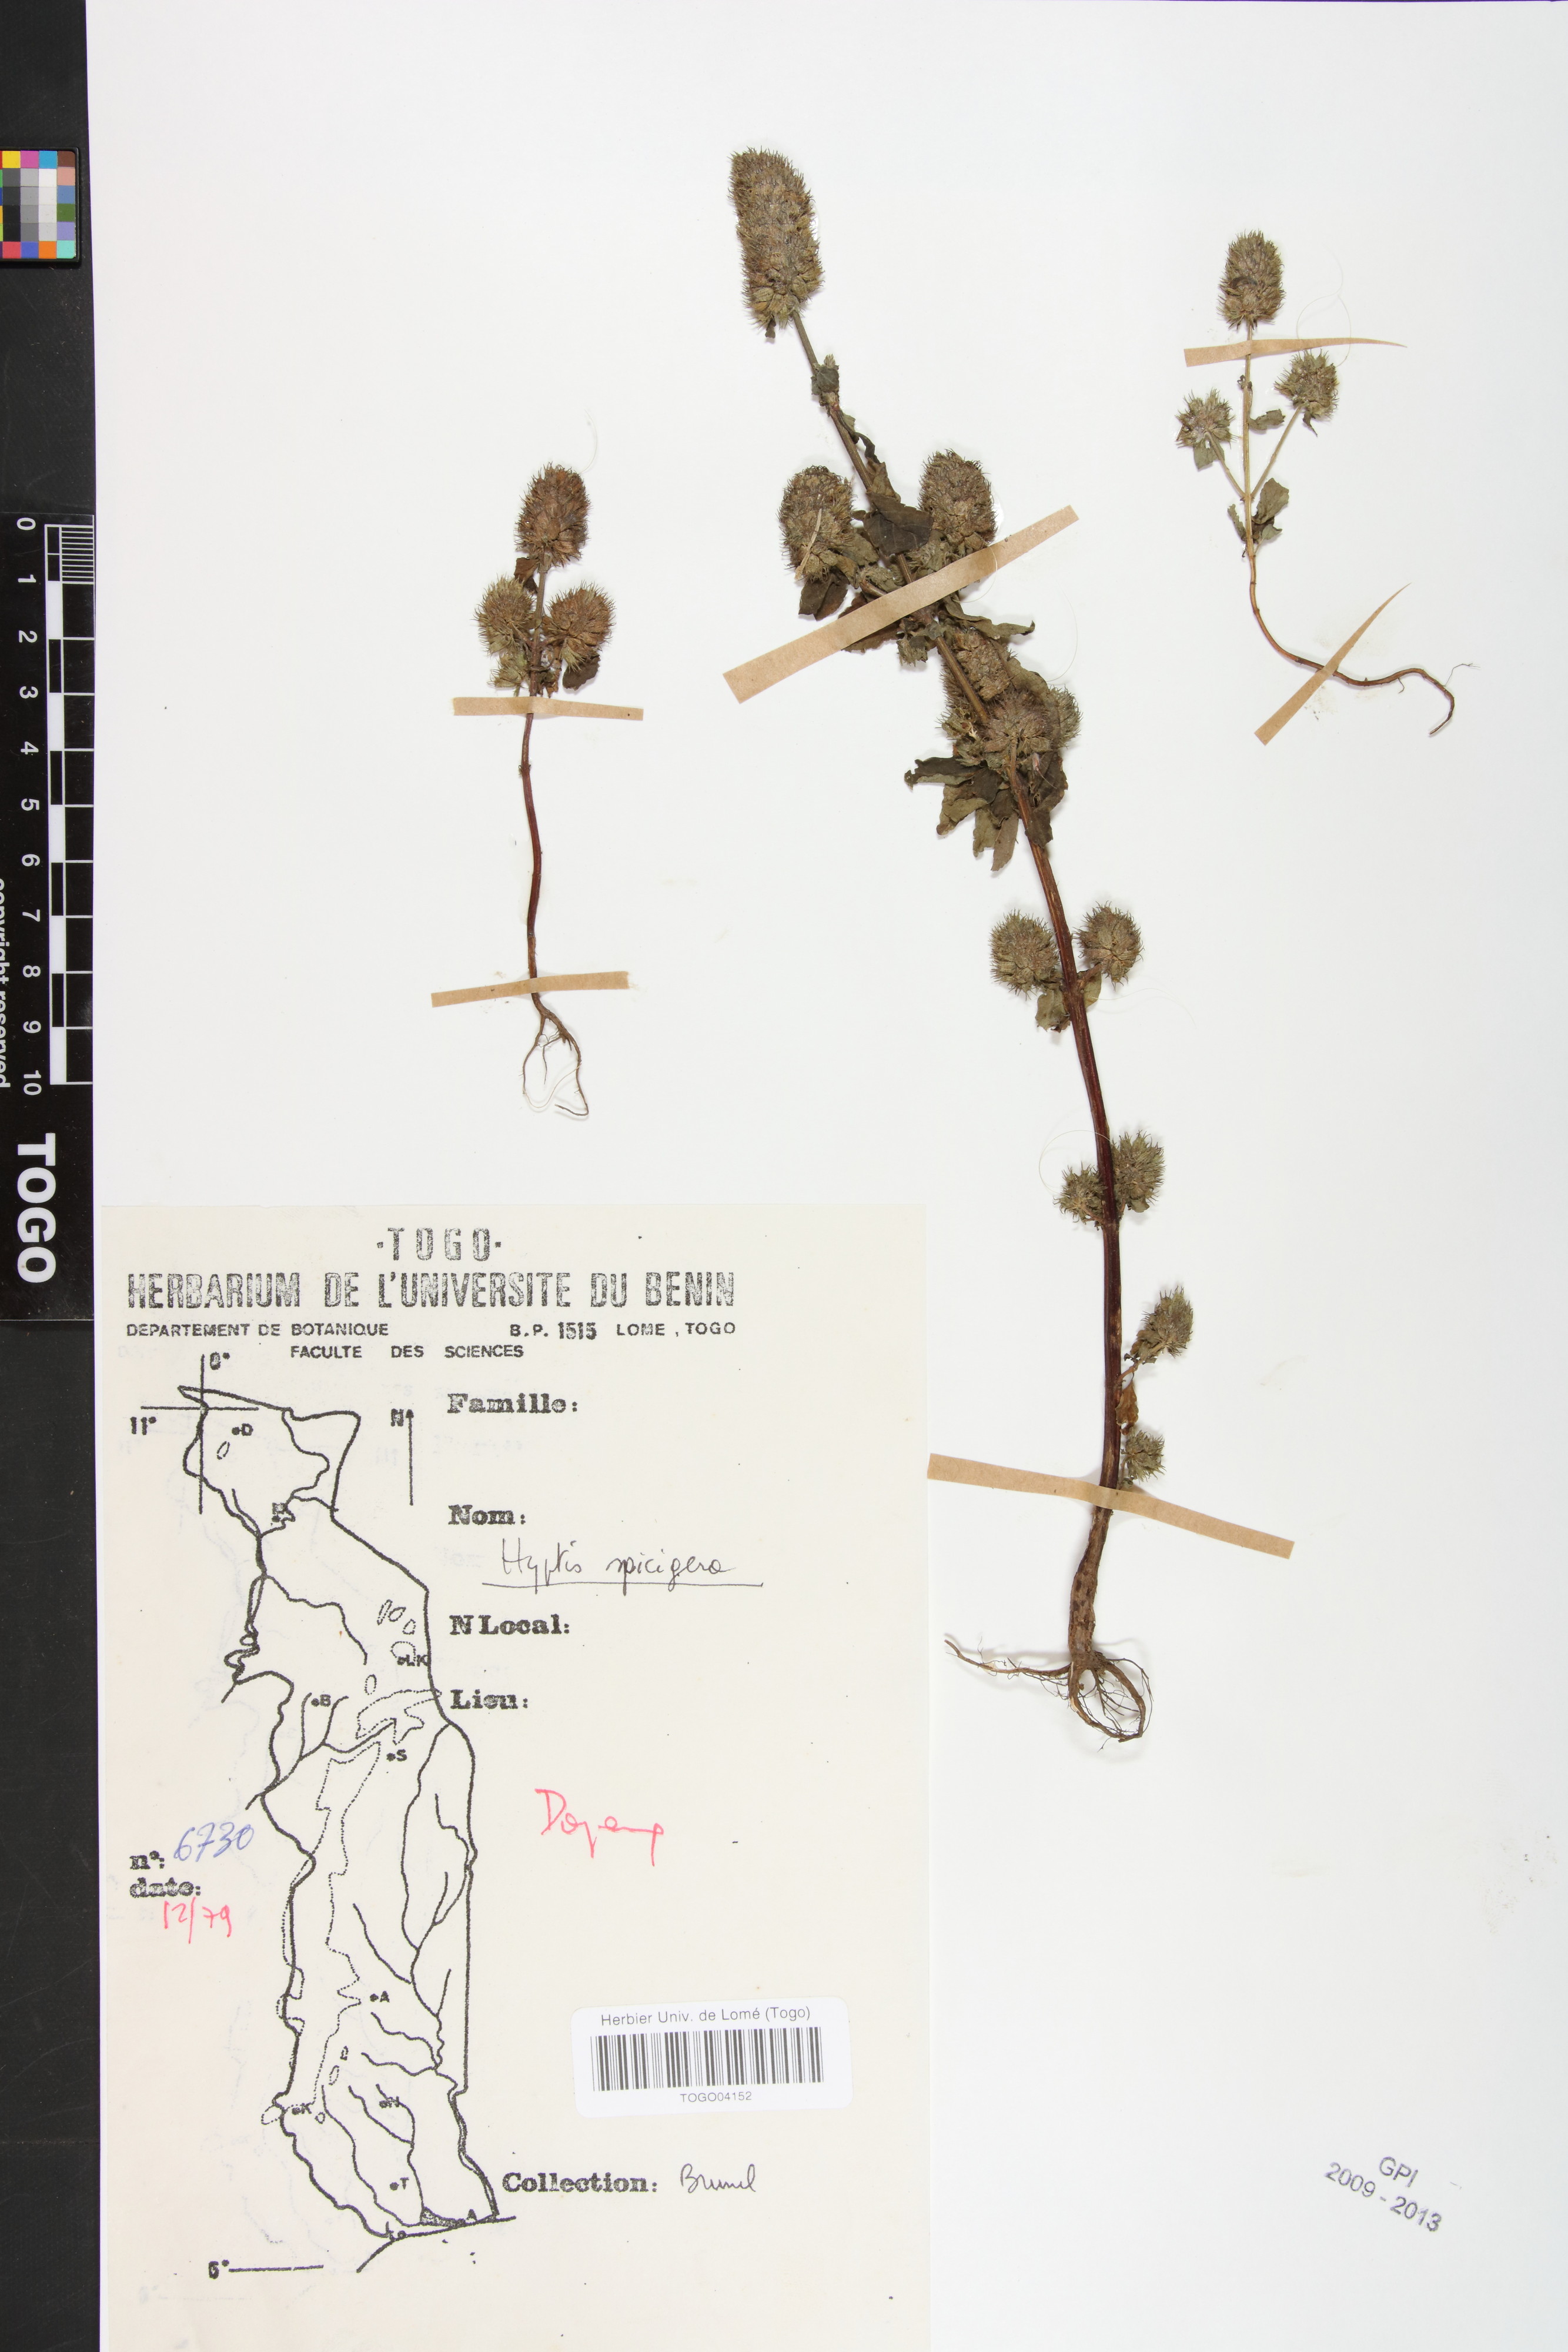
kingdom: Plantae
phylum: Tracheophyta
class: Magnoliopsida
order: Lamiales
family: Lamiaceae
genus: Cantinoa
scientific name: Cantinoa americana
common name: Black-sesame
